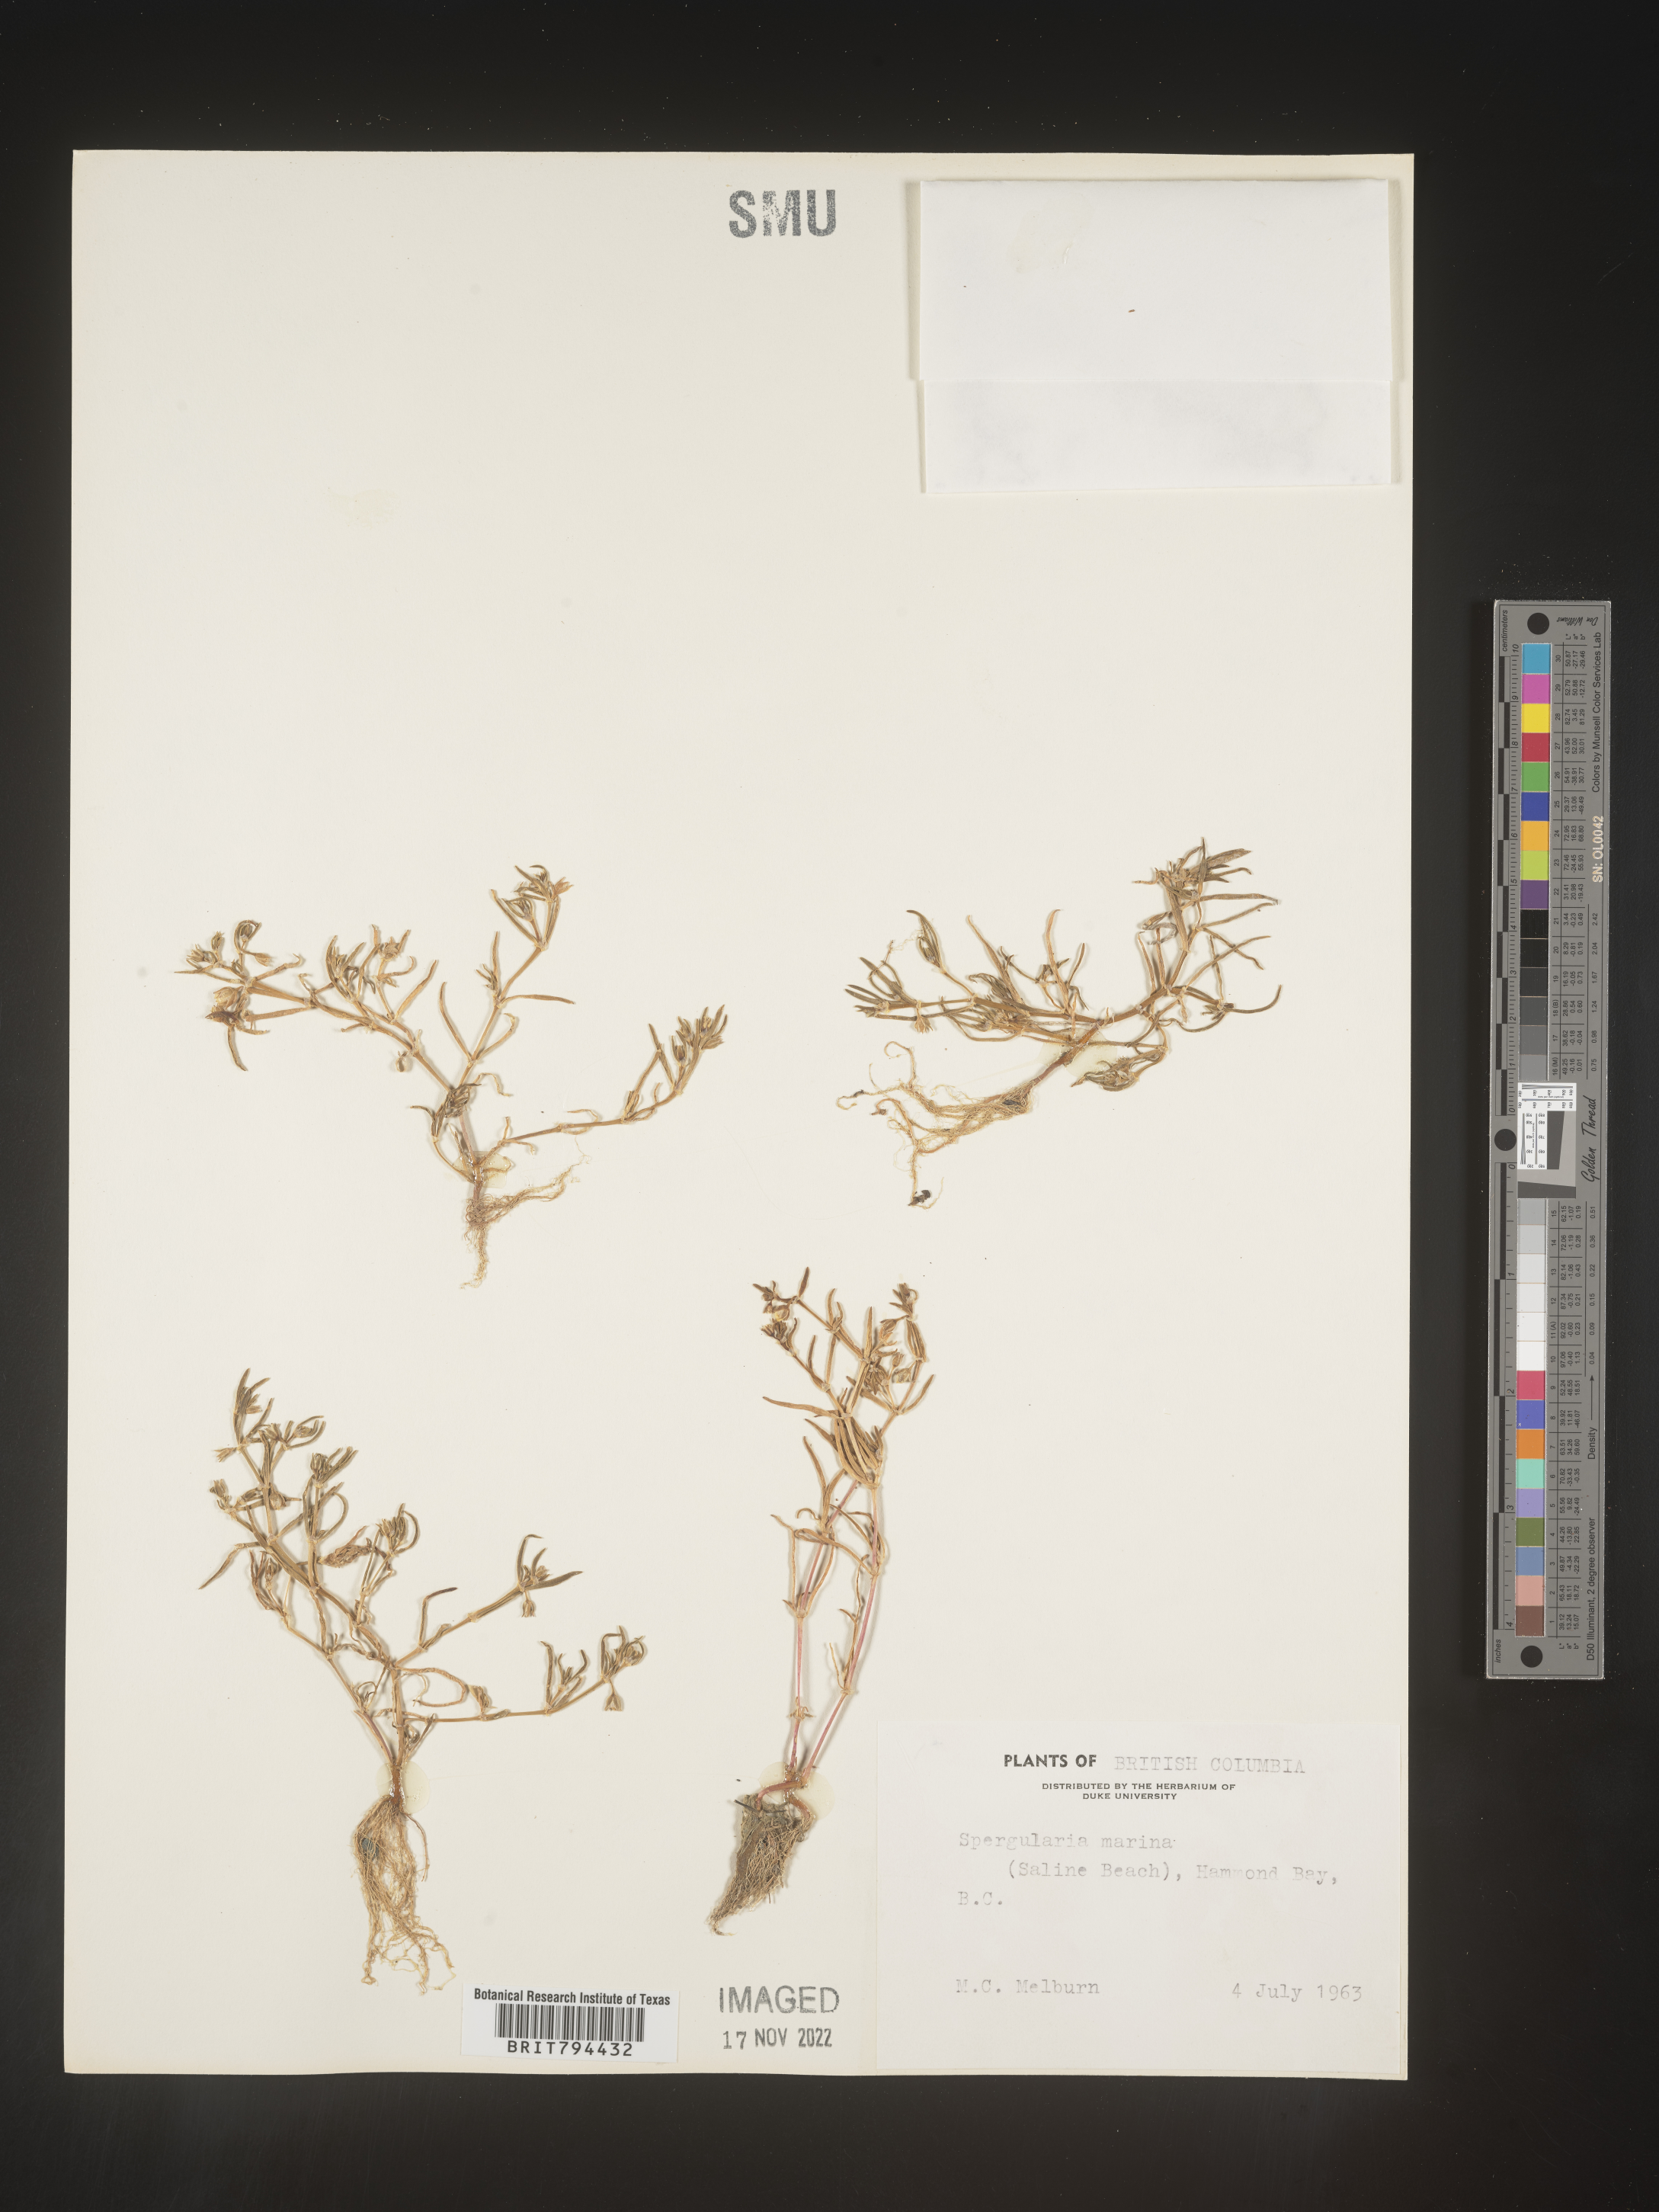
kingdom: Plantae
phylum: Tracheophyta
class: Magnoliopsida
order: Caryophyllales
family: Caryophyllaceae
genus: Spergularia
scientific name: Spergularia marina
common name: Lesser sea-spurrey
